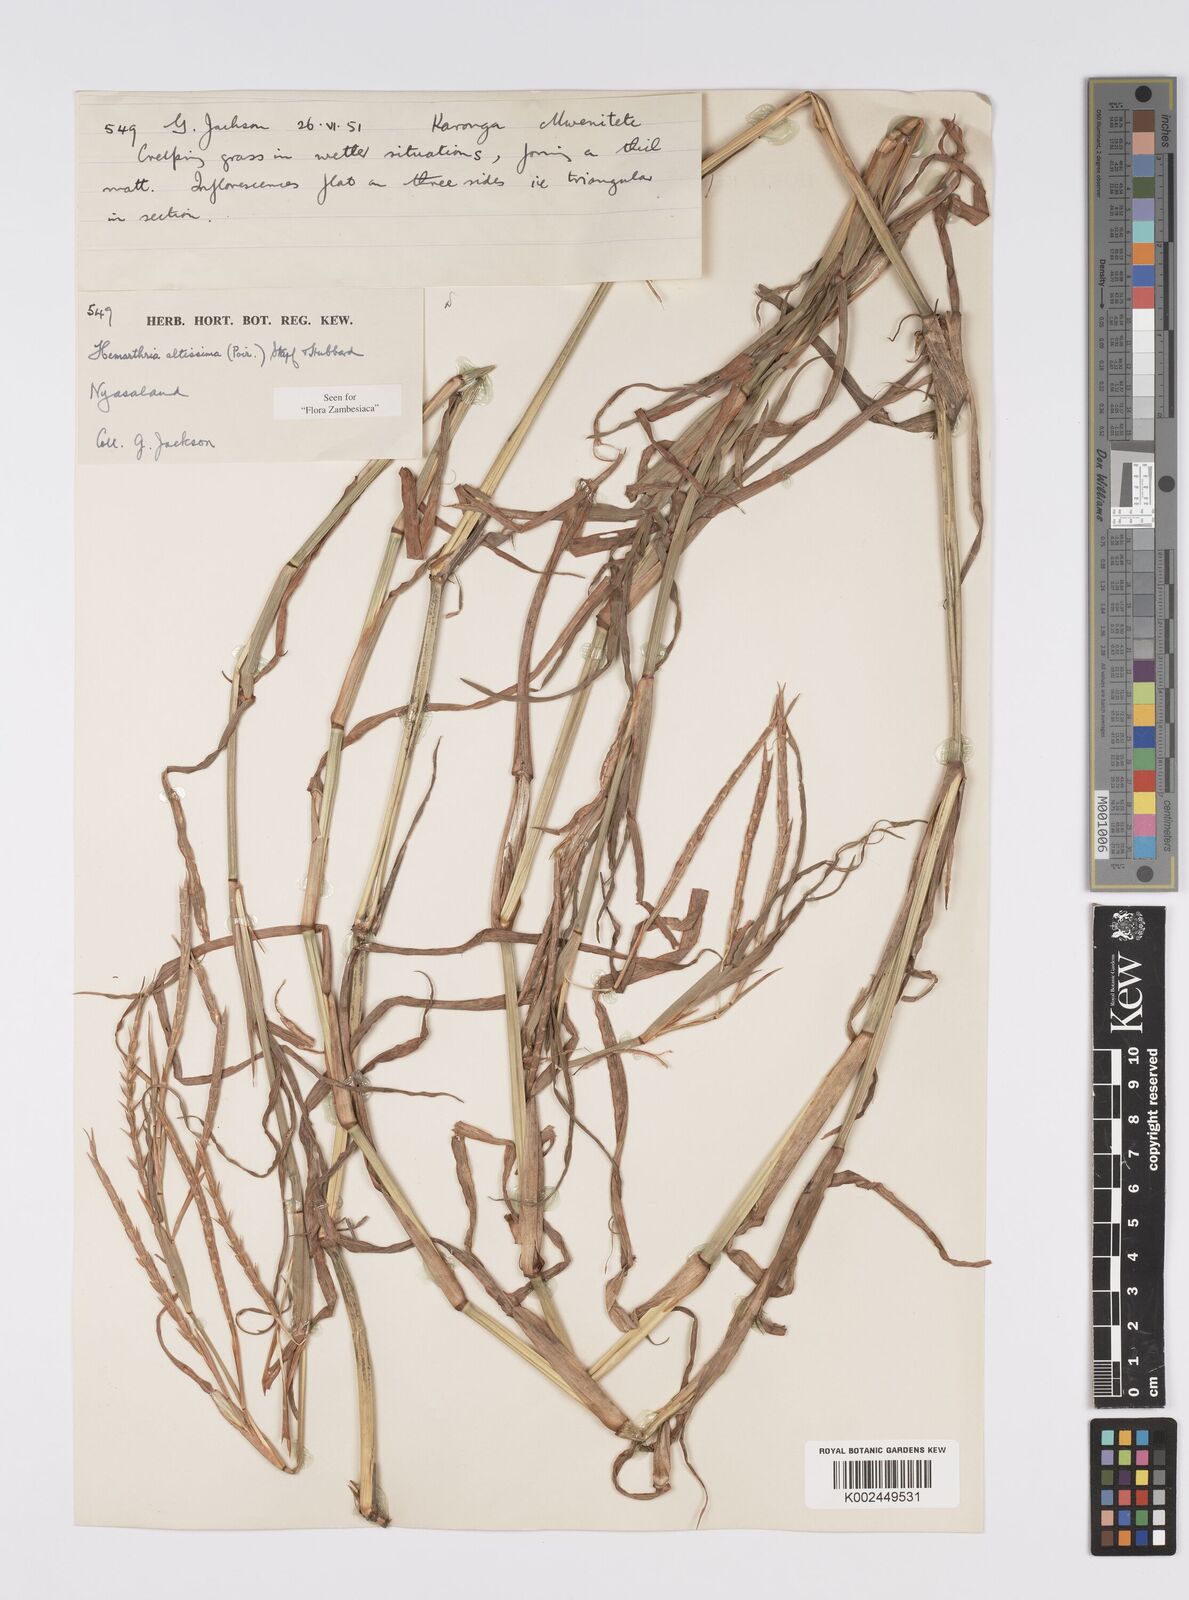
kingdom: Plantae
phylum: Tracheophyta
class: Liliopsida
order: Poales
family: Poaceae
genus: Hemarthria
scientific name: Hemarthria altissima
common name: African jointgrass
